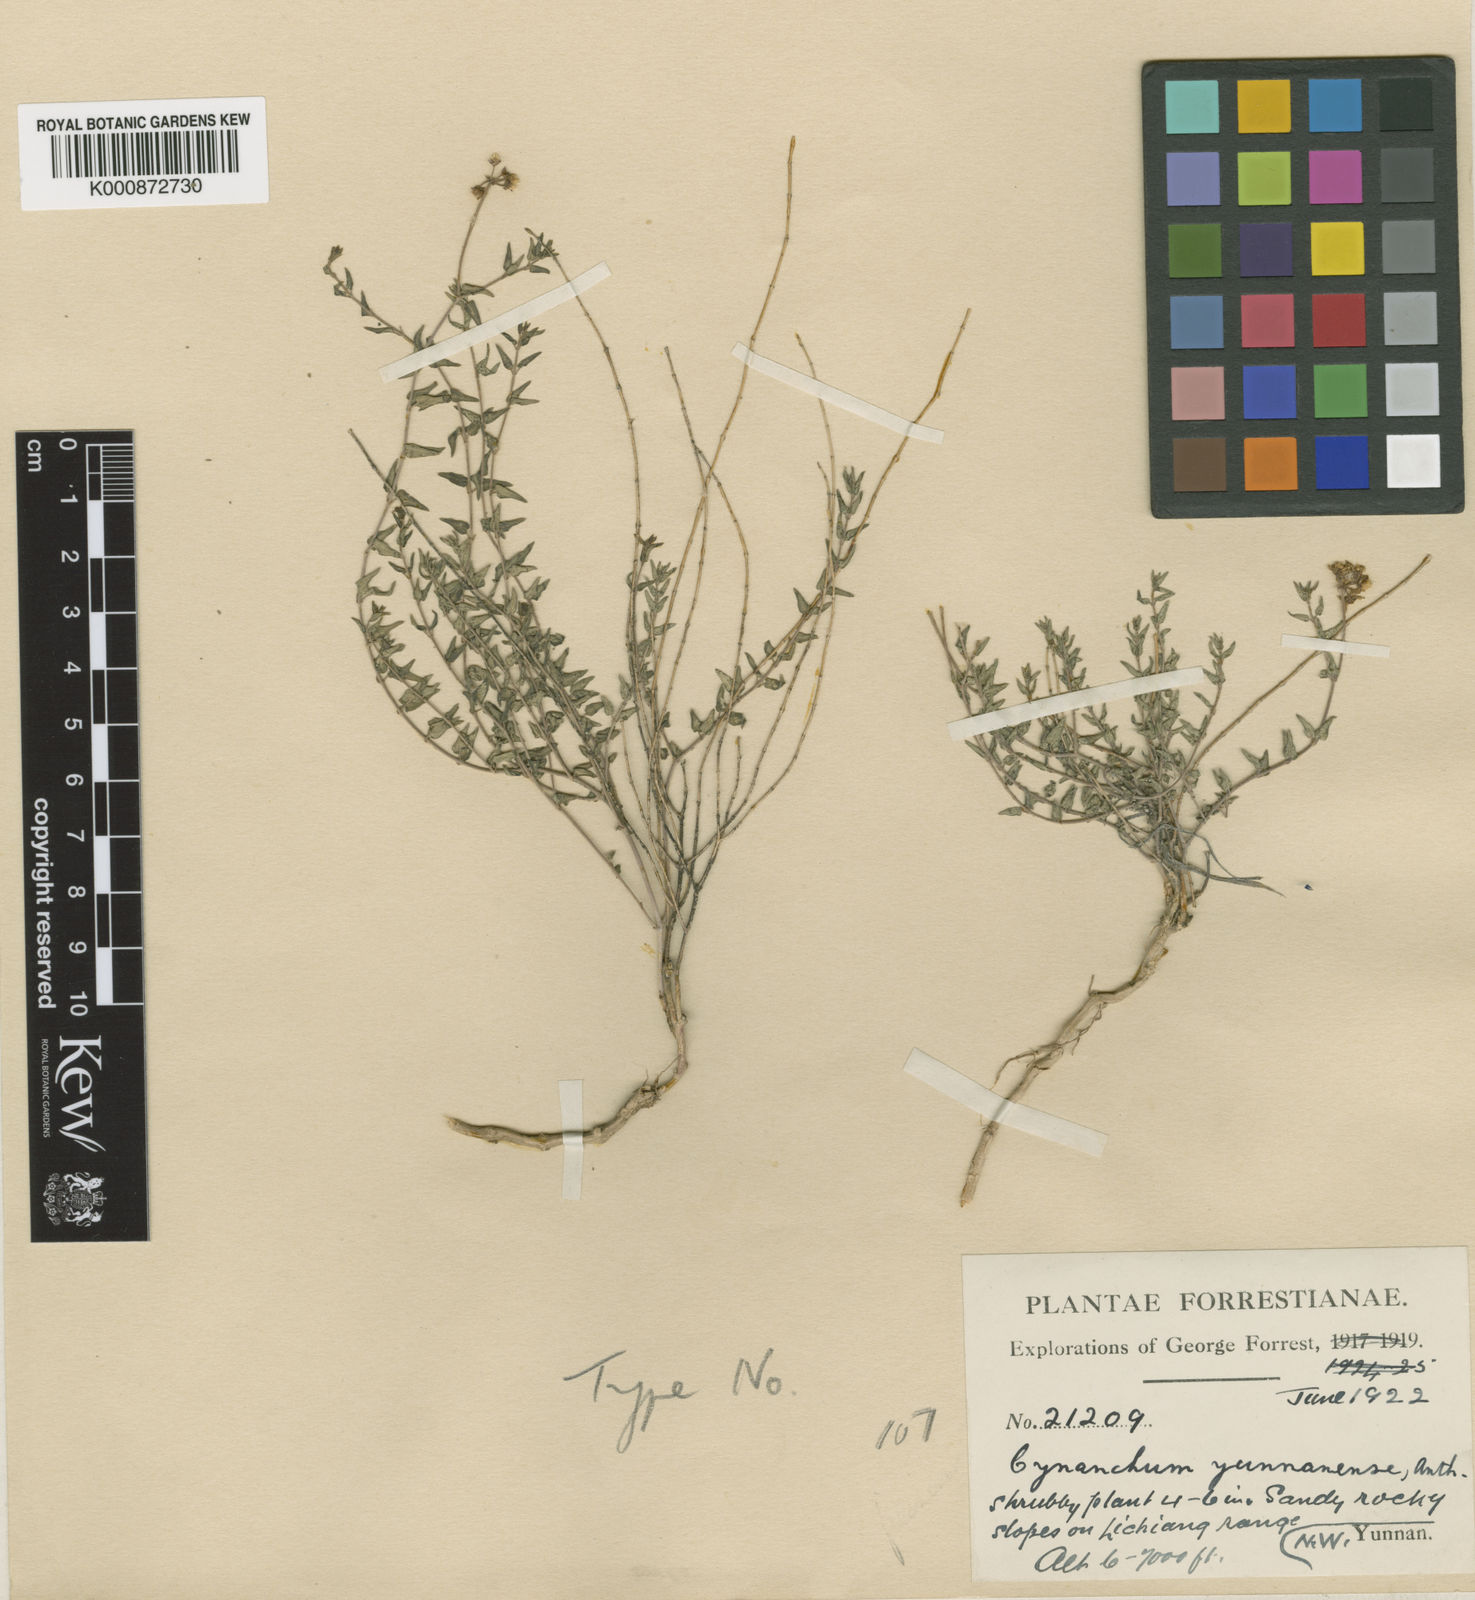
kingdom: Plantae
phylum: Tracheophyta
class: Magnoliopsida
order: Gentianales
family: Apocynaceae
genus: Cynanchum
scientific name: Cynanchum anthonyanum
